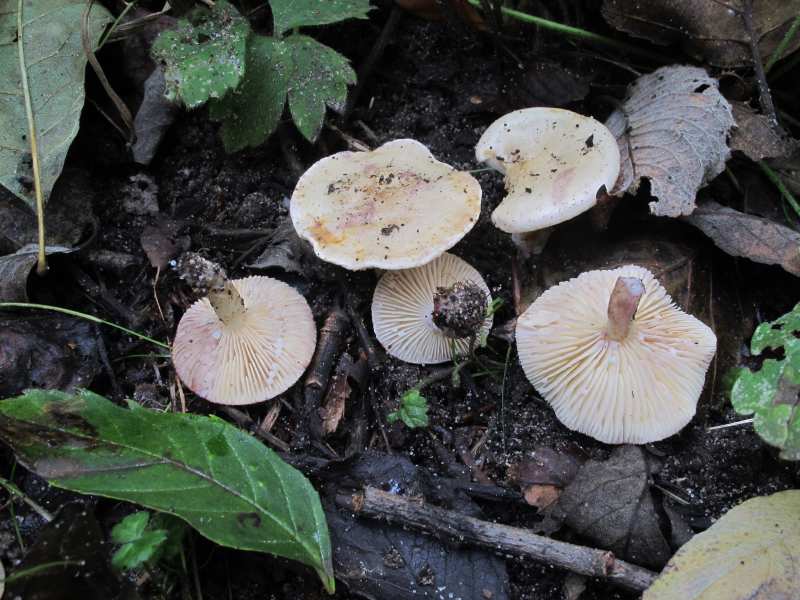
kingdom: Fungi
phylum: Basidiomycota
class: Agaricomycetes
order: Russulales
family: Russulaceae
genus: Lactarius
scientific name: Lactarius aspideus
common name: pile-mælkehat
